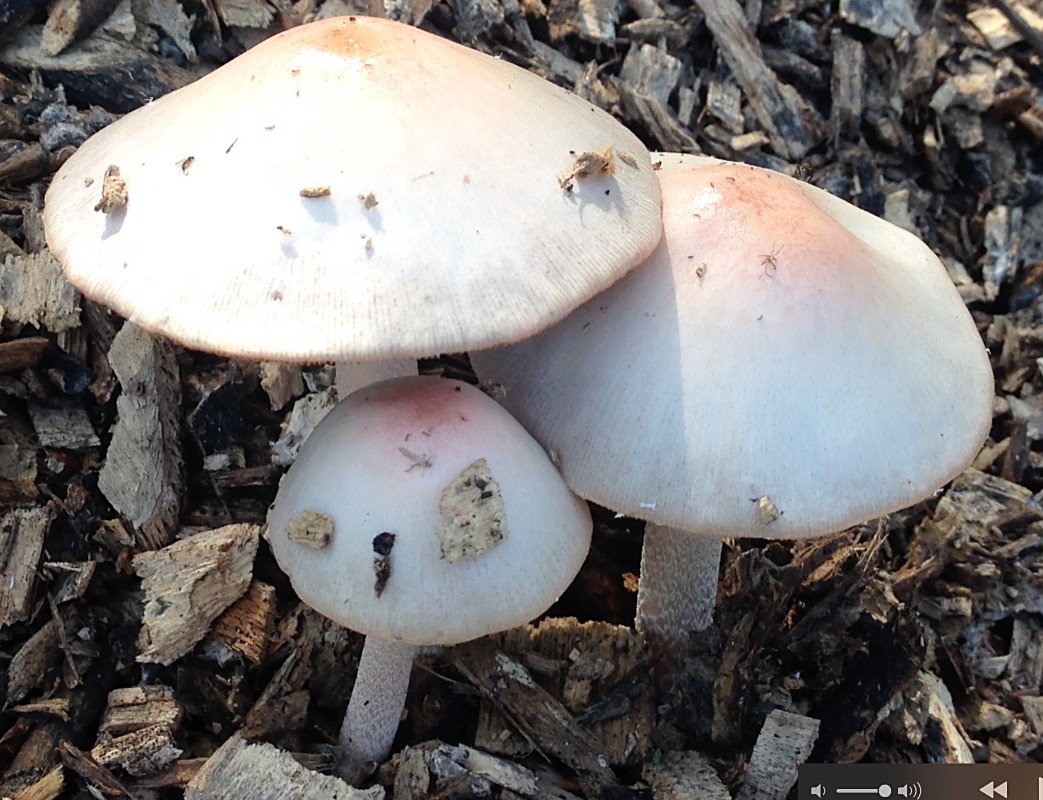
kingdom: Fungi
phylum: Basidiomycota
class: Agaricomycetes
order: Agaricales
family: Bolbitiaceae
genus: Bolbitius
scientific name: Bolbitius coprophilus
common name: rosa gulhat
